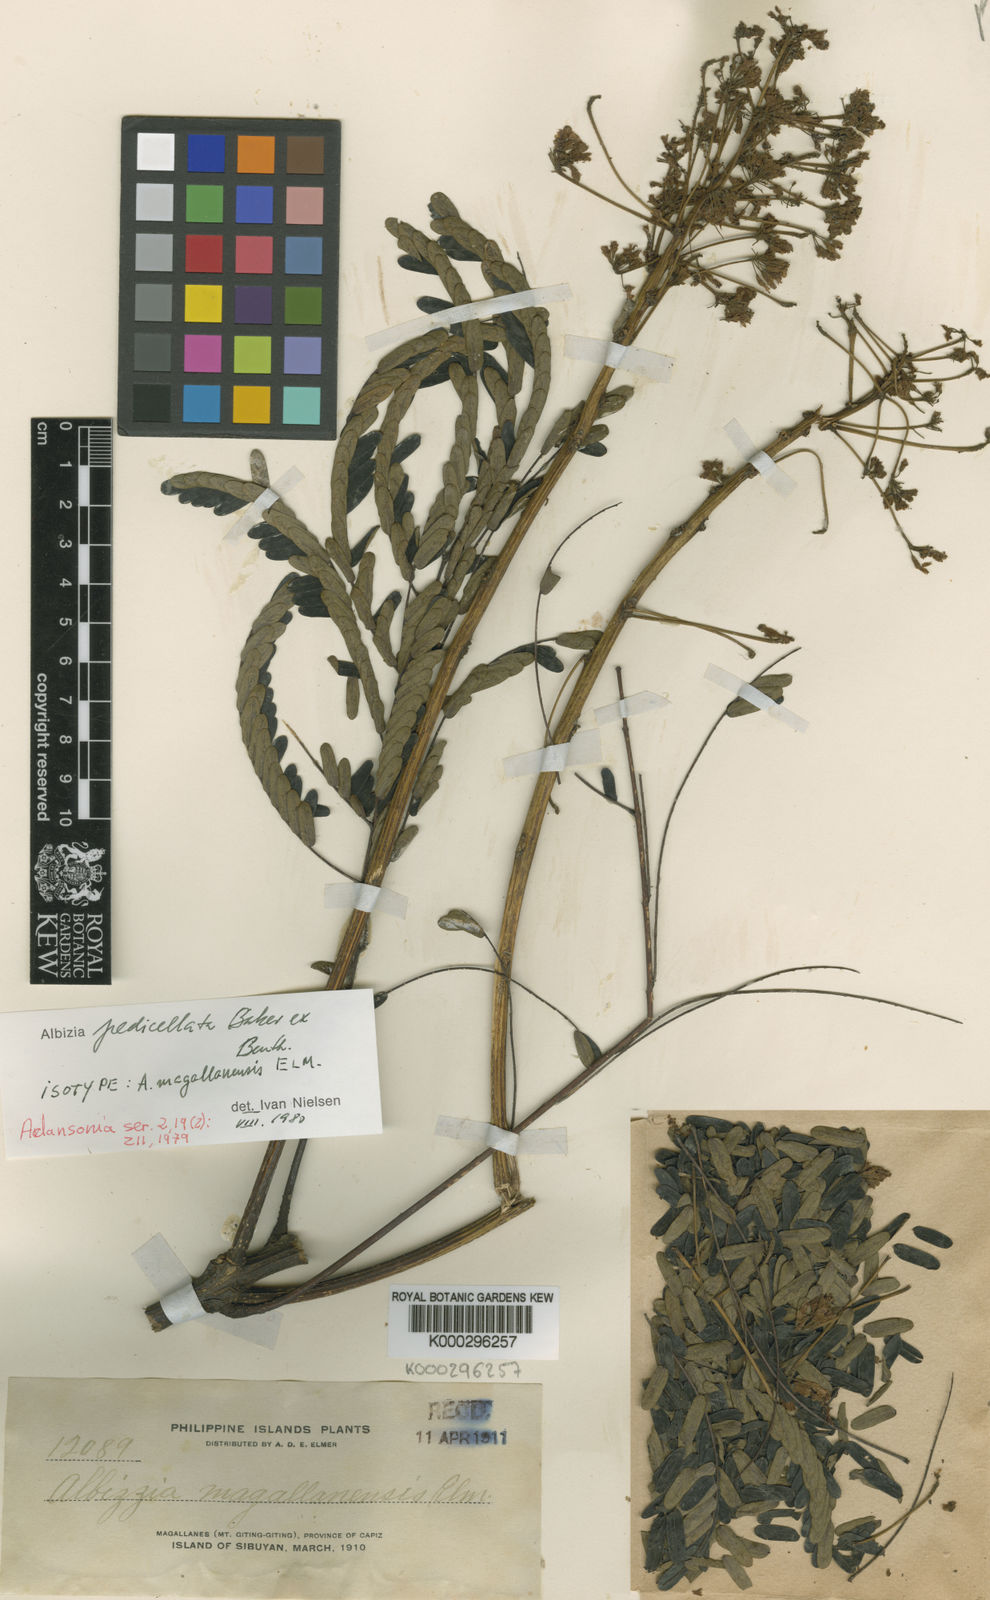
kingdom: Plantae
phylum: Tracheophyta
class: Magnoliopsida
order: Fabales
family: Fabaceae
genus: Albizia
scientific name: Albizia pedicellata
